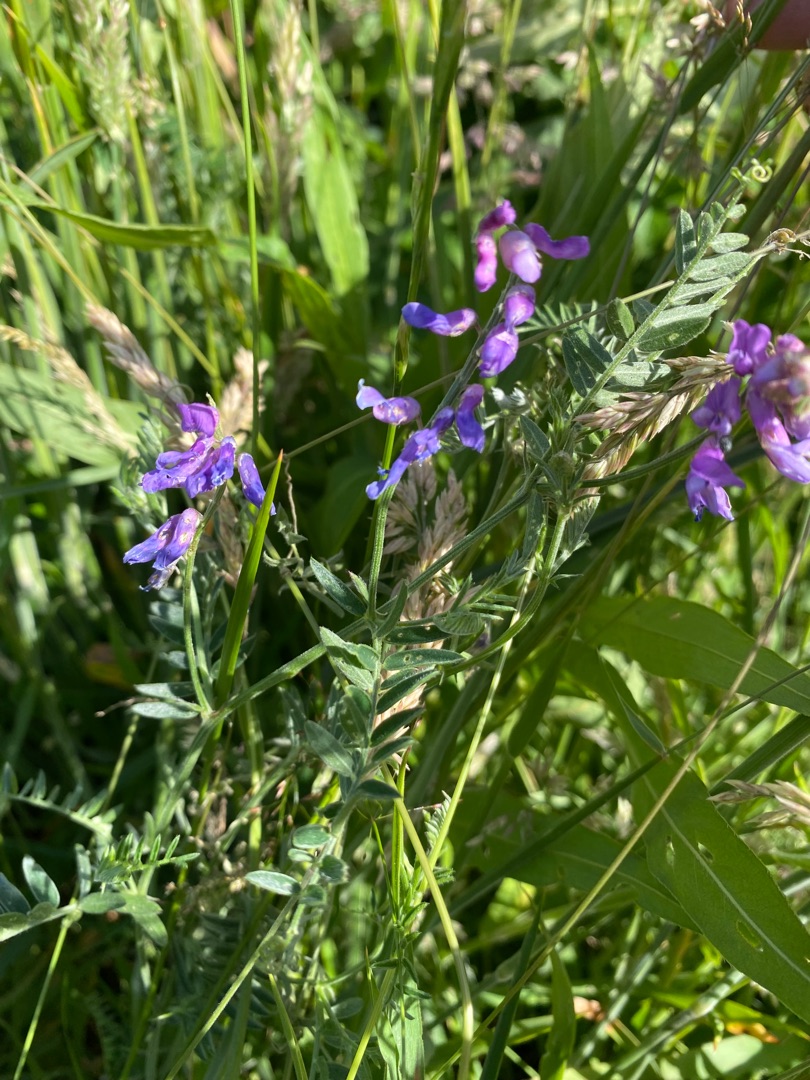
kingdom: Plantae
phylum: Tracheophyta
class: Magnoliopsida
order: Fabales
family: Fabaceae
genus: Vicia
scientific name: Vicia cracca
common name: Muse-vikke
